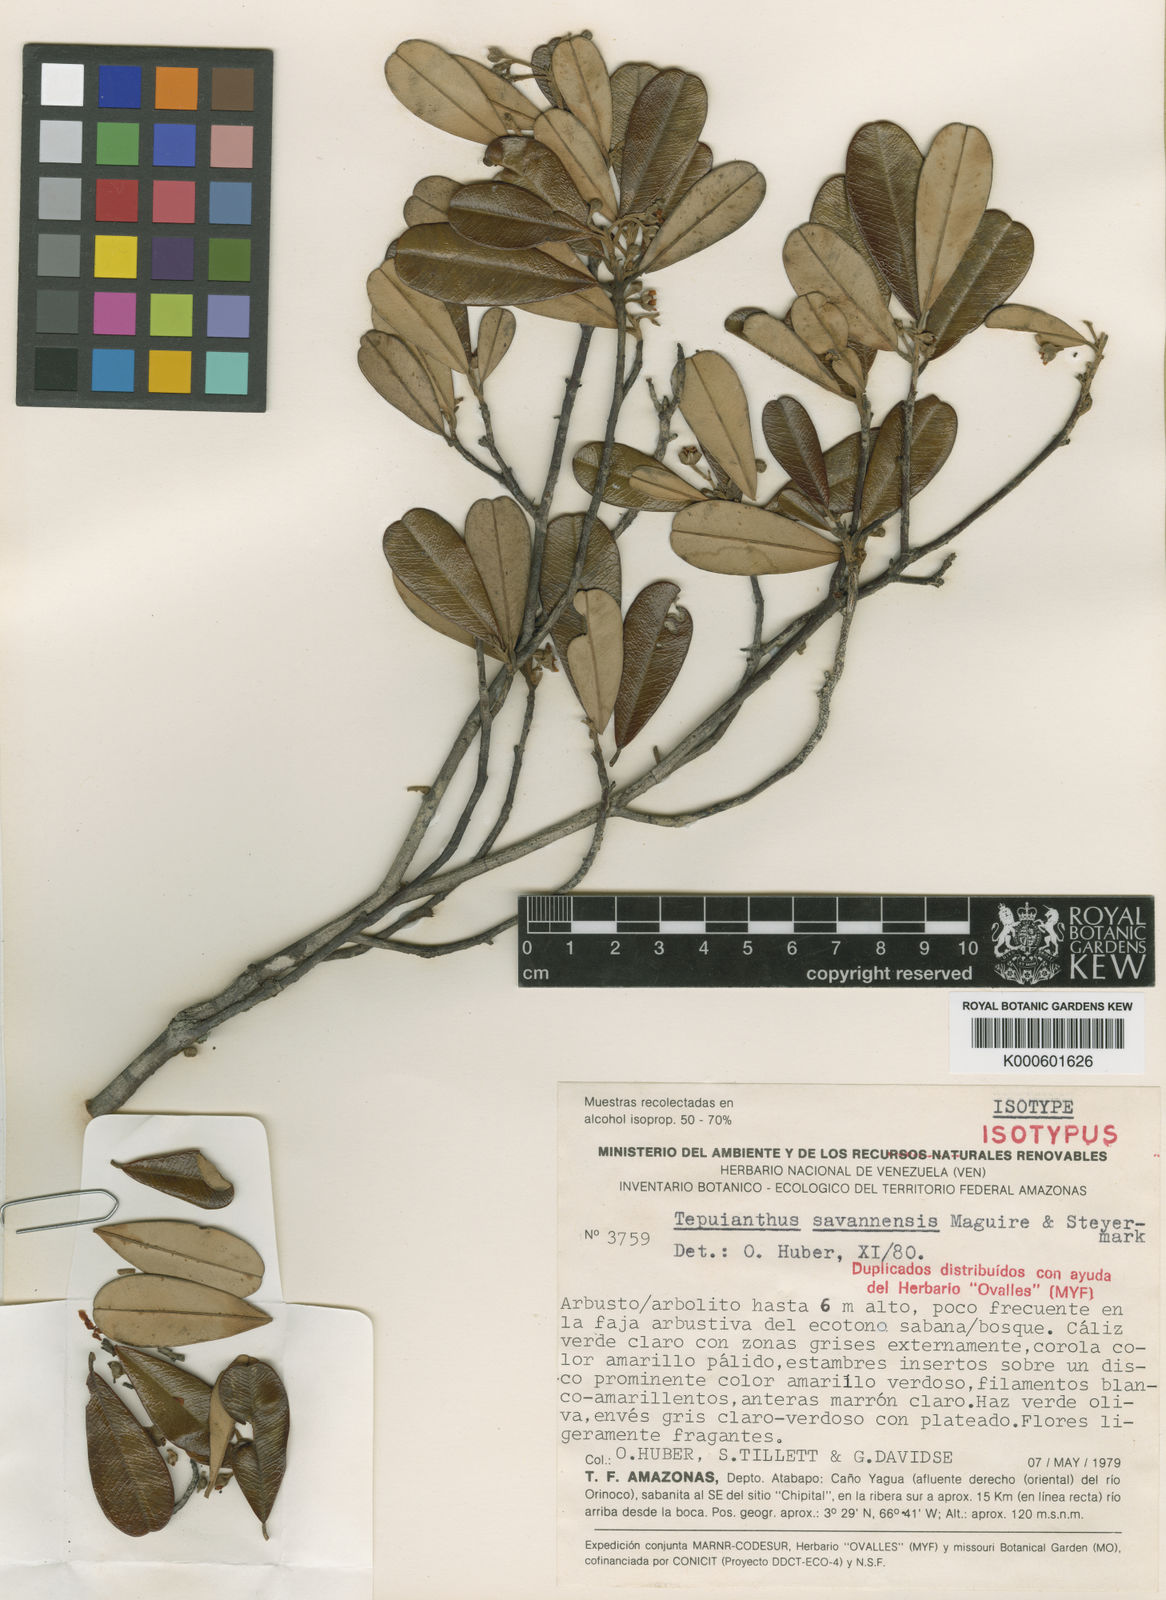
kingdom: Plantae
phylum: Tracheophyta
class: Magnoliopsida
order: Malvales
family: Thymelaeaceae
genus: Tepuianthus
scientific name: Tepuianthus savannensis
